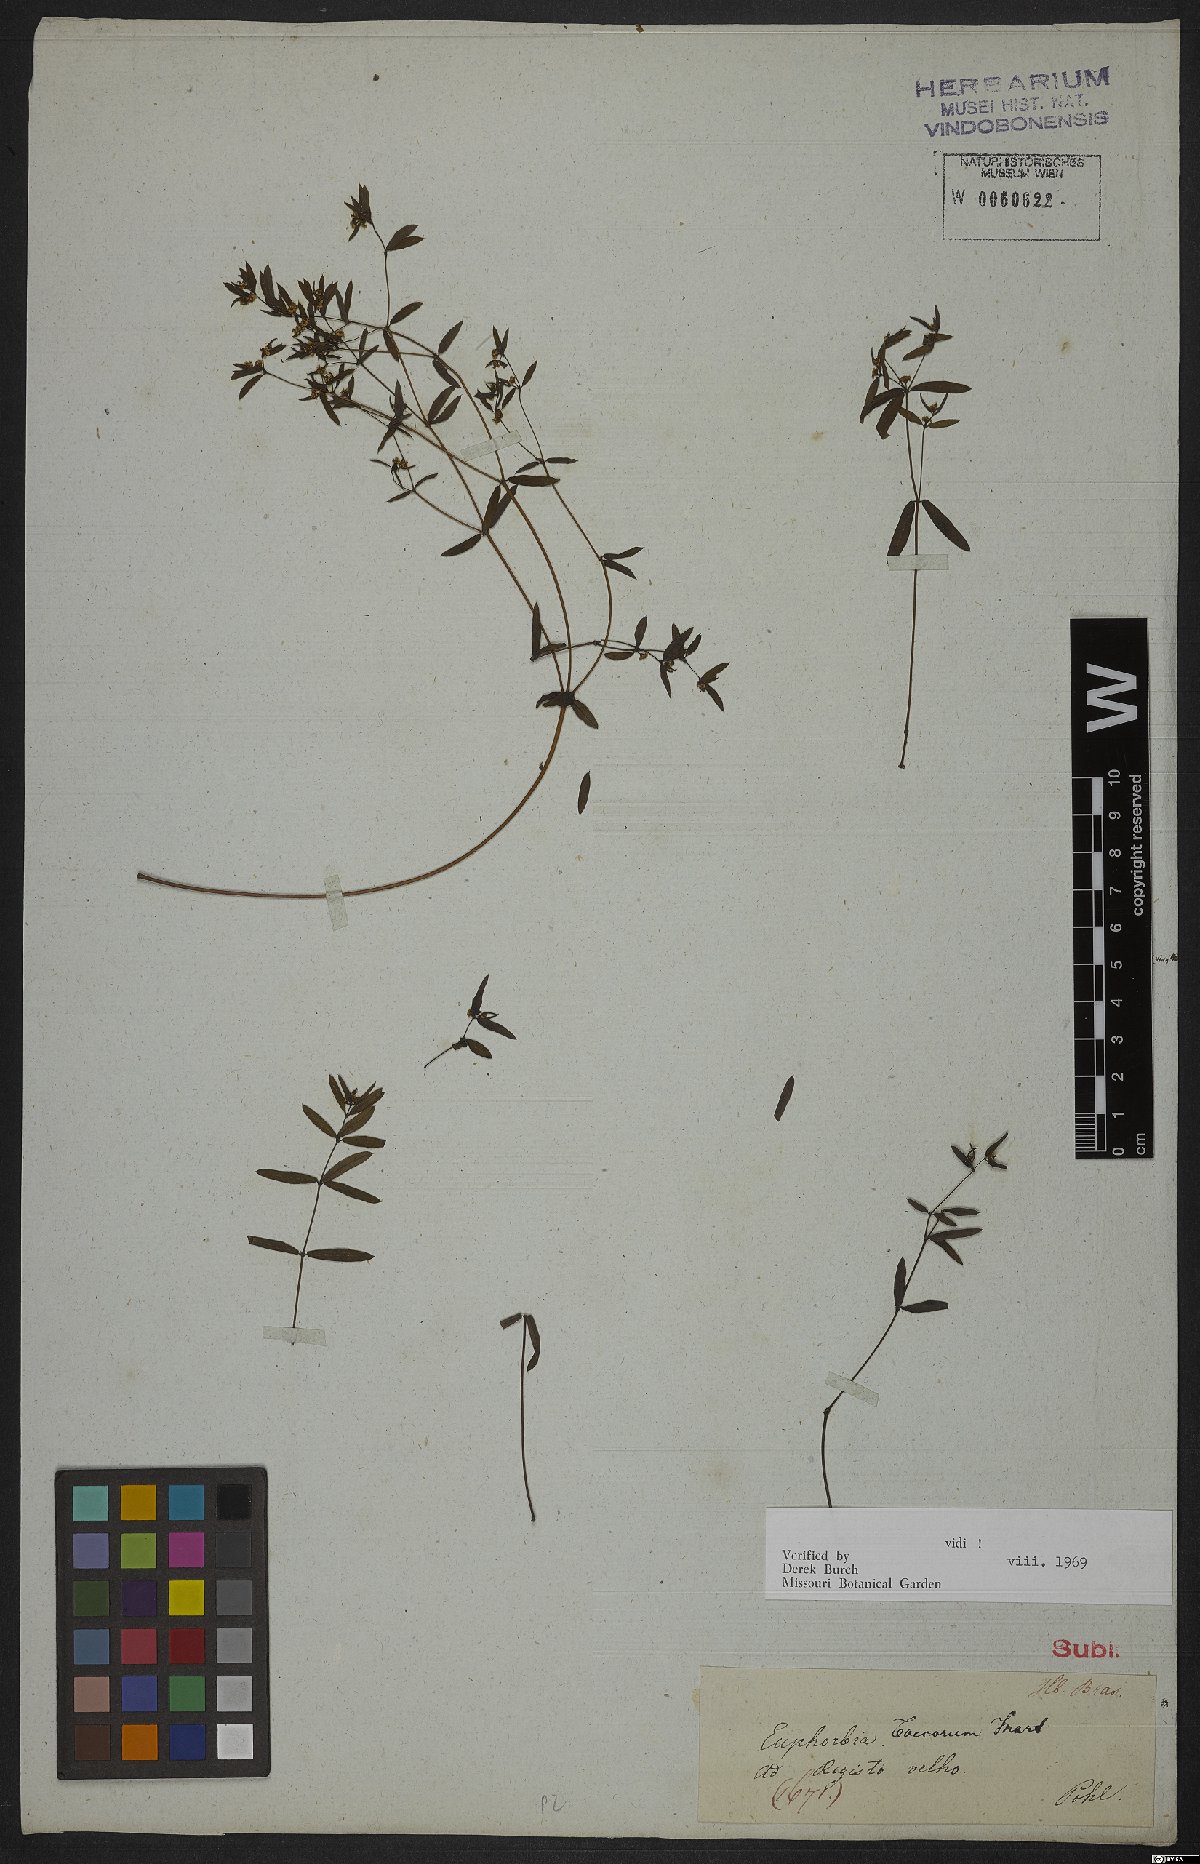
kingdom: Plantae
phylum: Tracheophyta
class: Magnoliopsida
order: Malpighiales
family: Euphorbiaceae
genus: Euphorbia
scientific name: Euphorbia potentilloides
